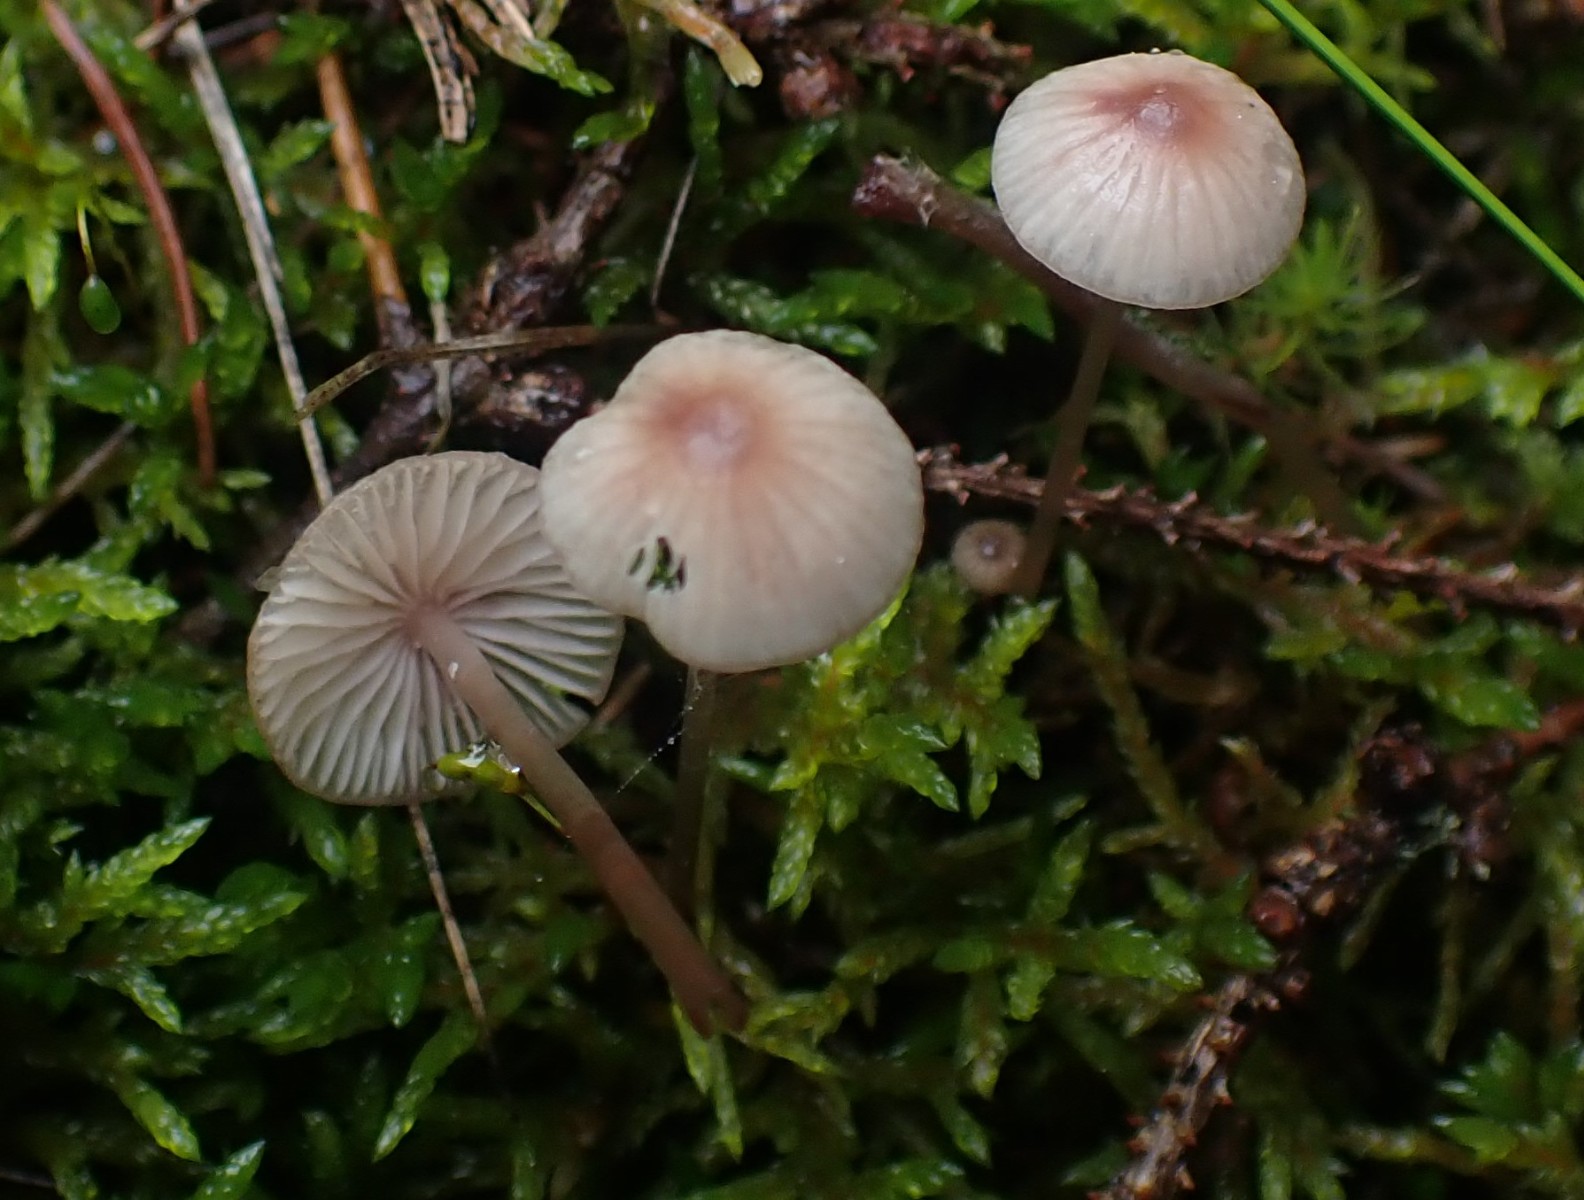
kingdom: Fungi
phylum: Basidiomycota
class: Agaricomycetes
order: Agaricales
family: Mycenaceae
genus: Mycena
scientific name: Mycena sanguinolenta
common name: rødmælket huesvamp
